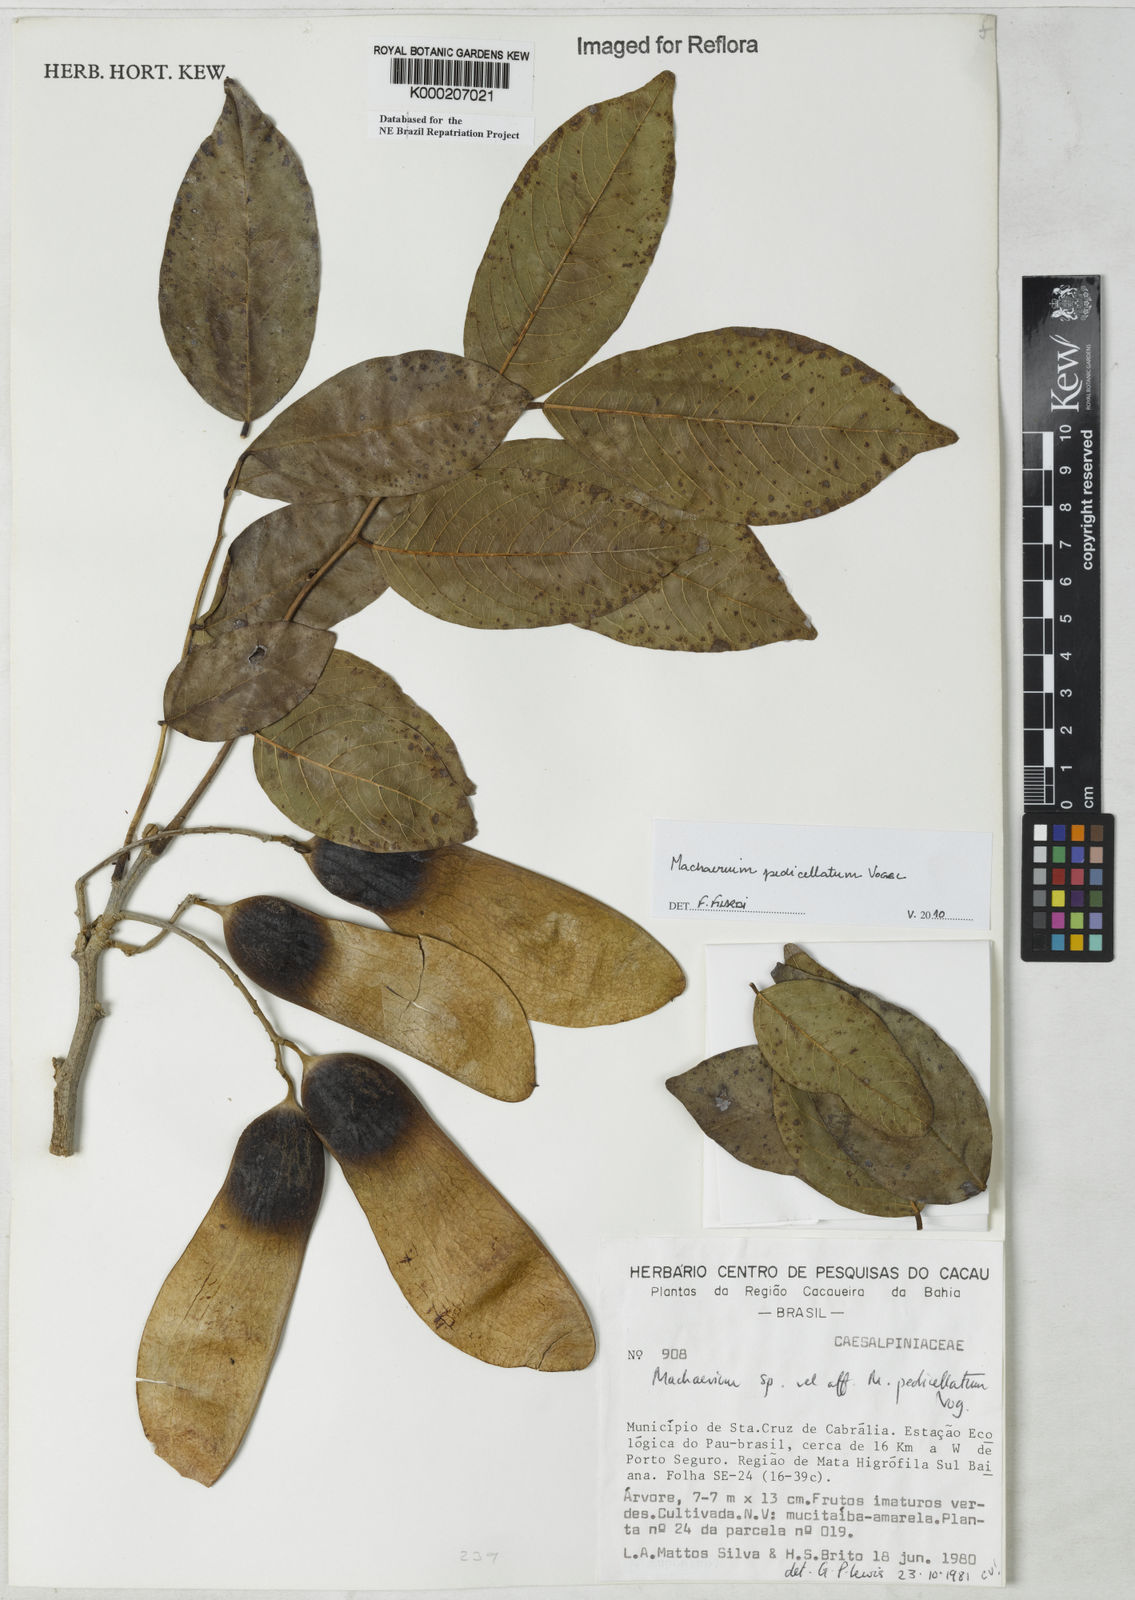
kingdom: Plantae
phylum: Tracheophyta
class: Magnoliopsida
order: Fabales
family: Fabaceae
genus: Machaerium
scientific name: Machaerium pedicellatum
